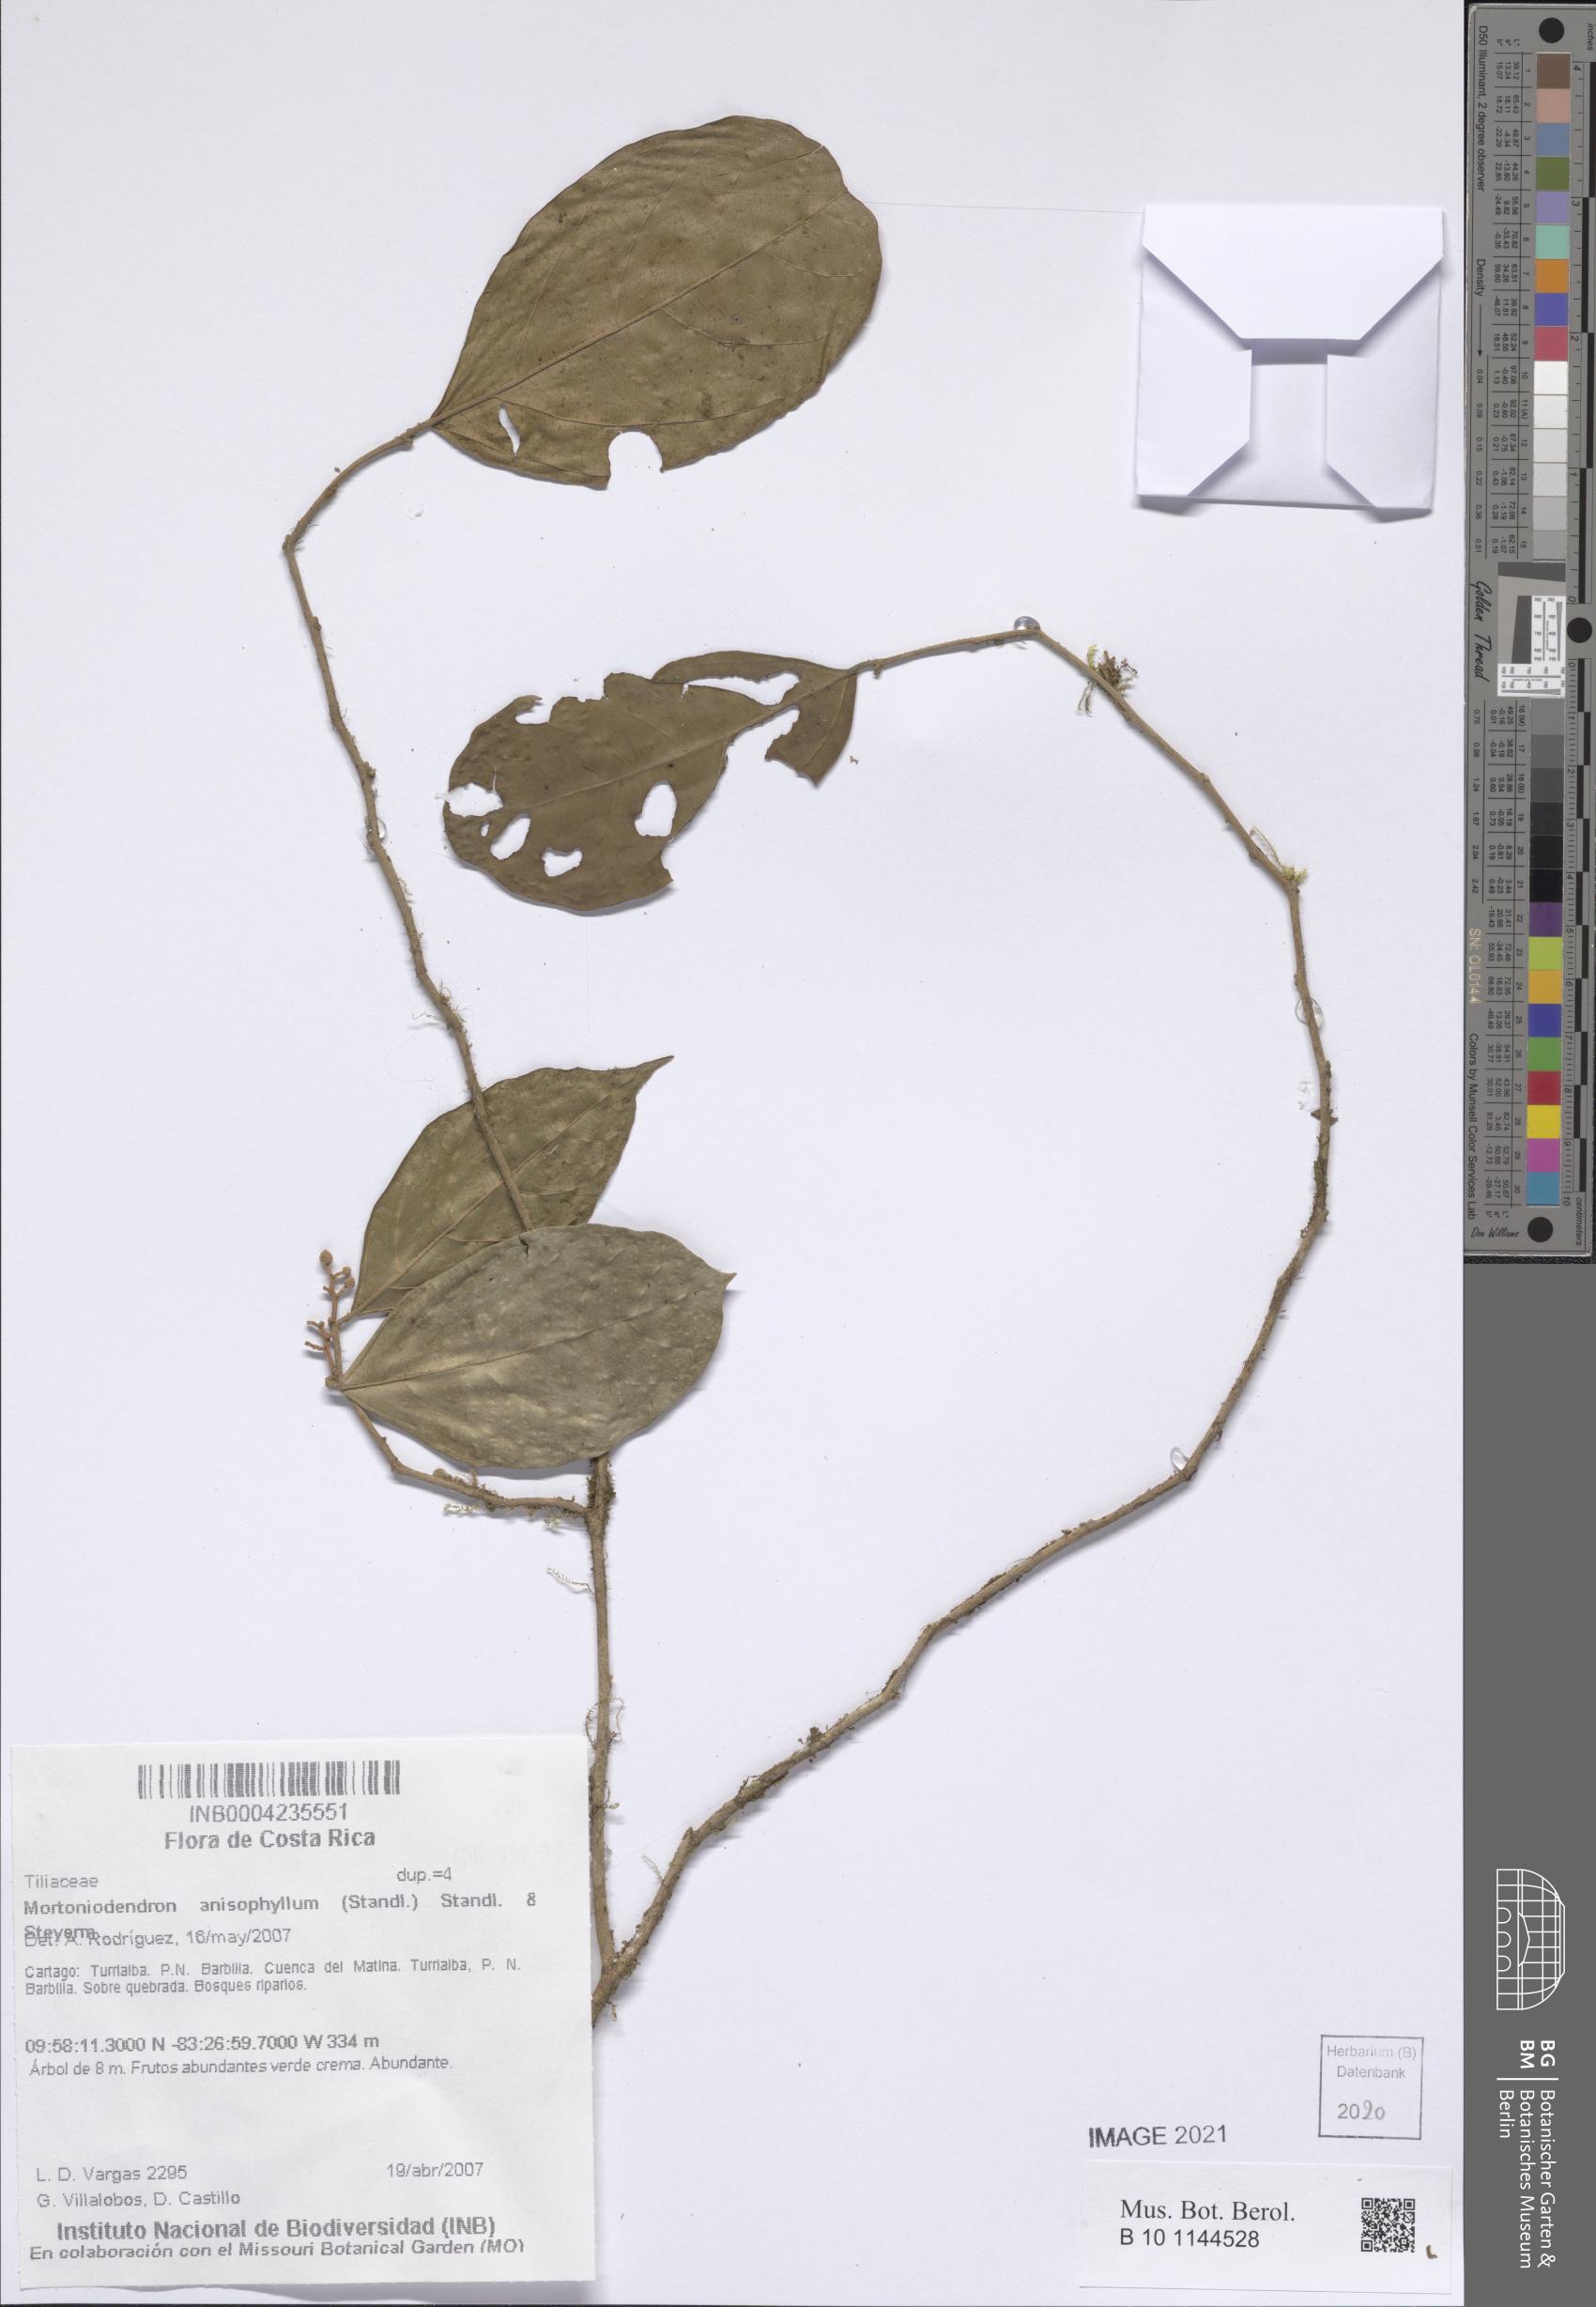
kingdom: Plantae
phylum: Tracheophyta
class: Magnoliopsida
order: Malvales
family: Malvaceae
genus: Mortoniodendron
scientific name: Mortoniodendron anisophyllum
